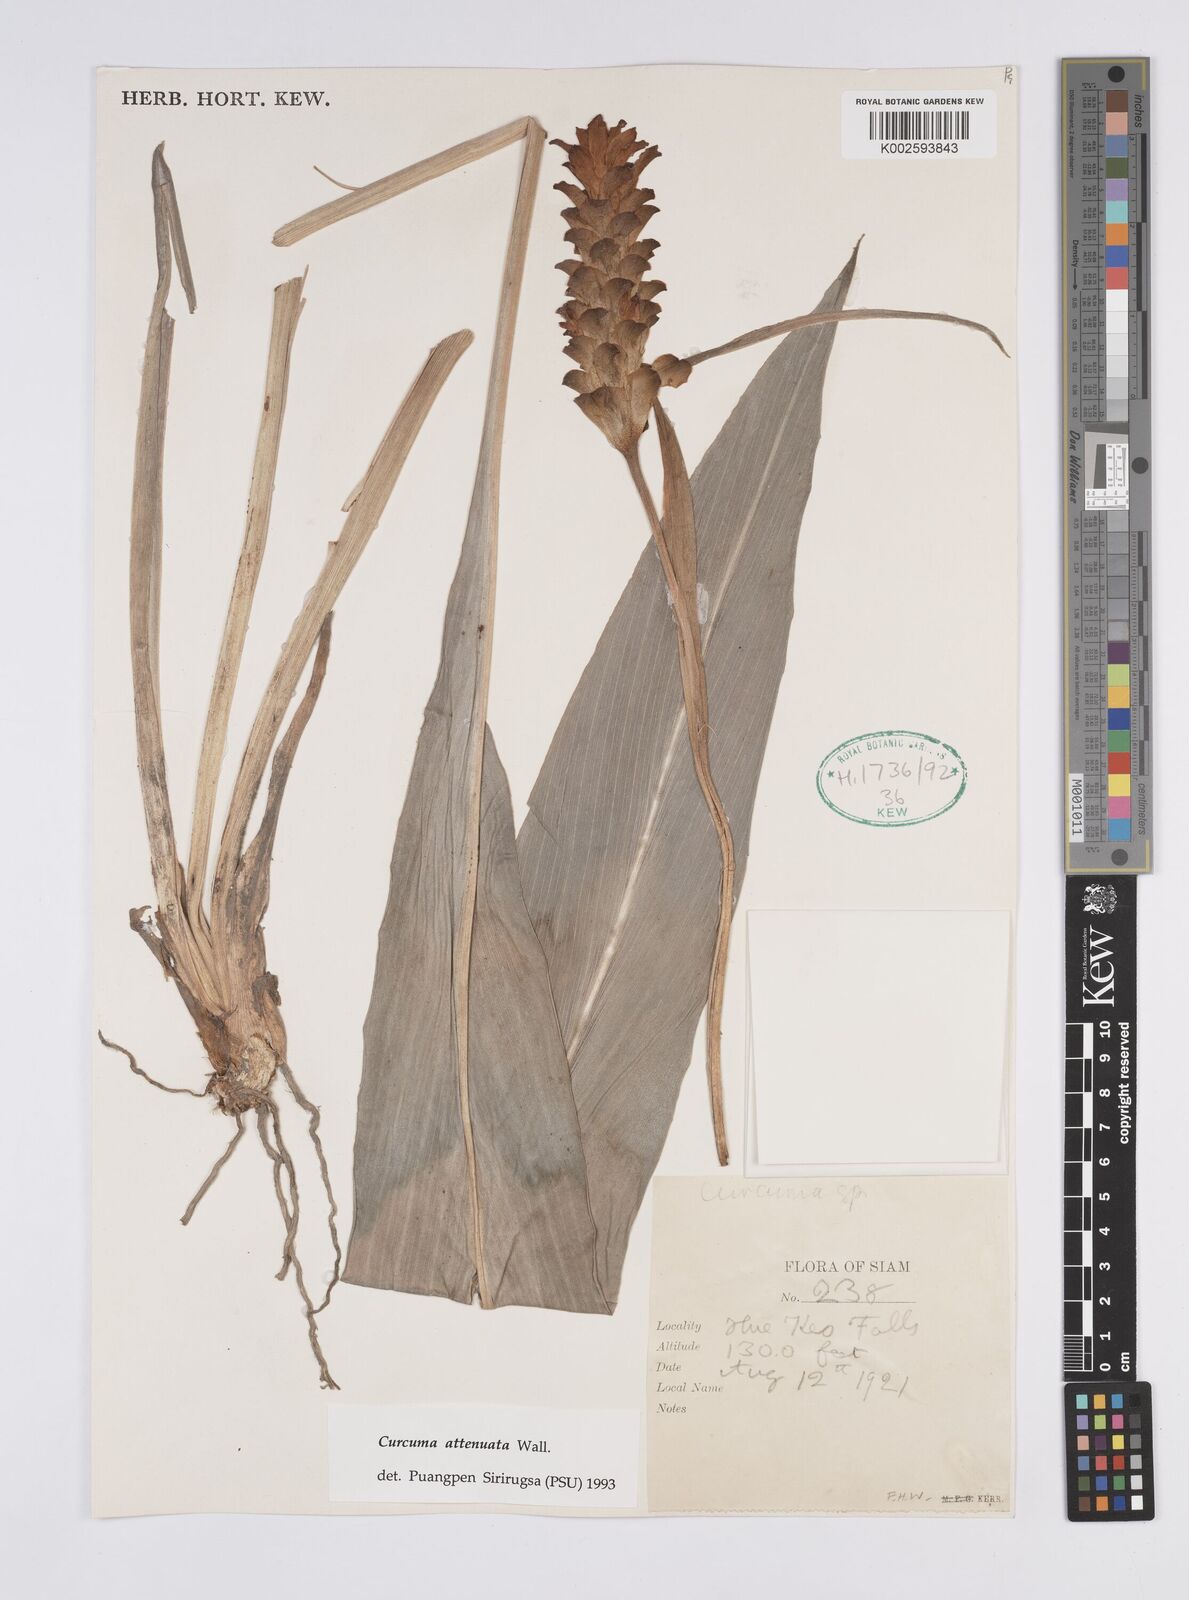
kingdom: Plantae
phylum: Tracheophyta
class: Liliopsida
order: Zingiberales
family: Zingiberaceae
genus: Curcuma
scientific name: Curcuma attenuata
